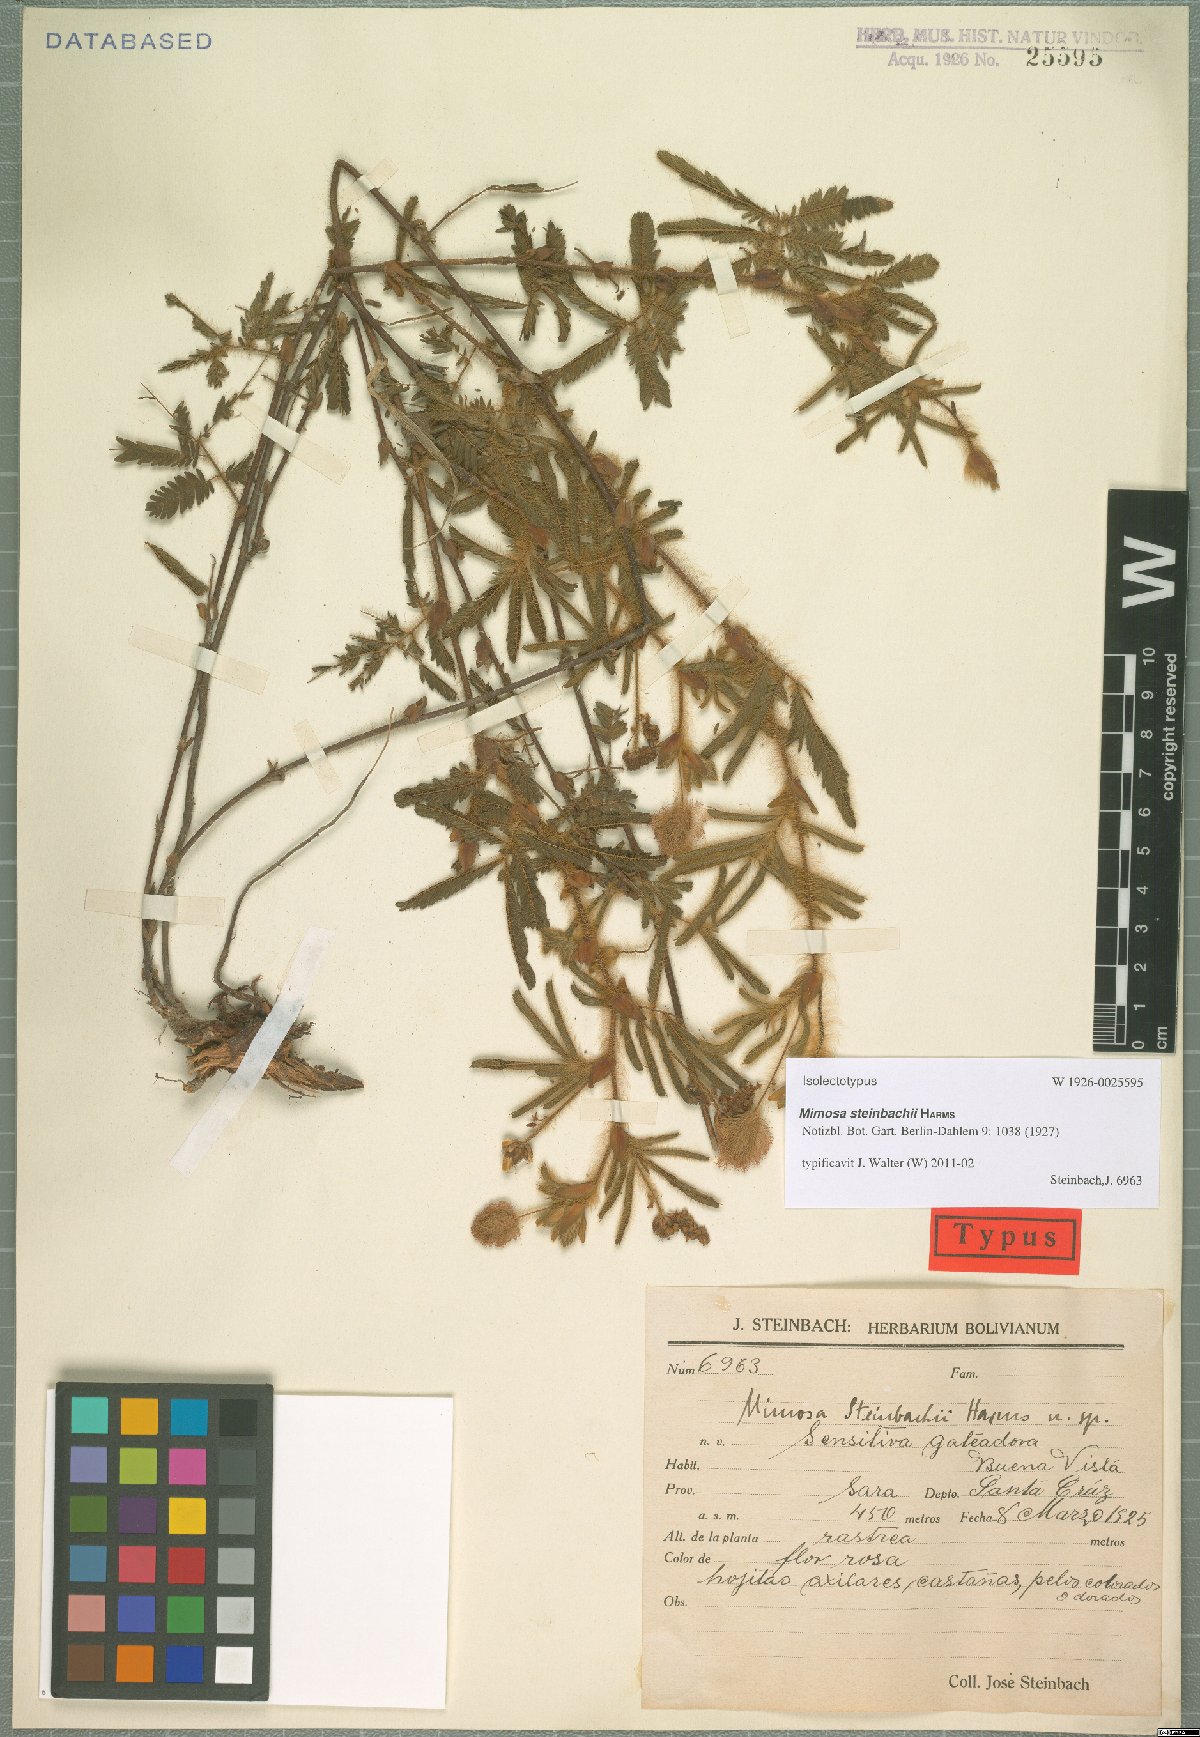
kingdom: Plantae
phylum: Tracheophyta
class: Magnoliopsida
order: Fabales
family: Fabaceae
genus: Mimosa
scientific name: Mimosa neptunioides
